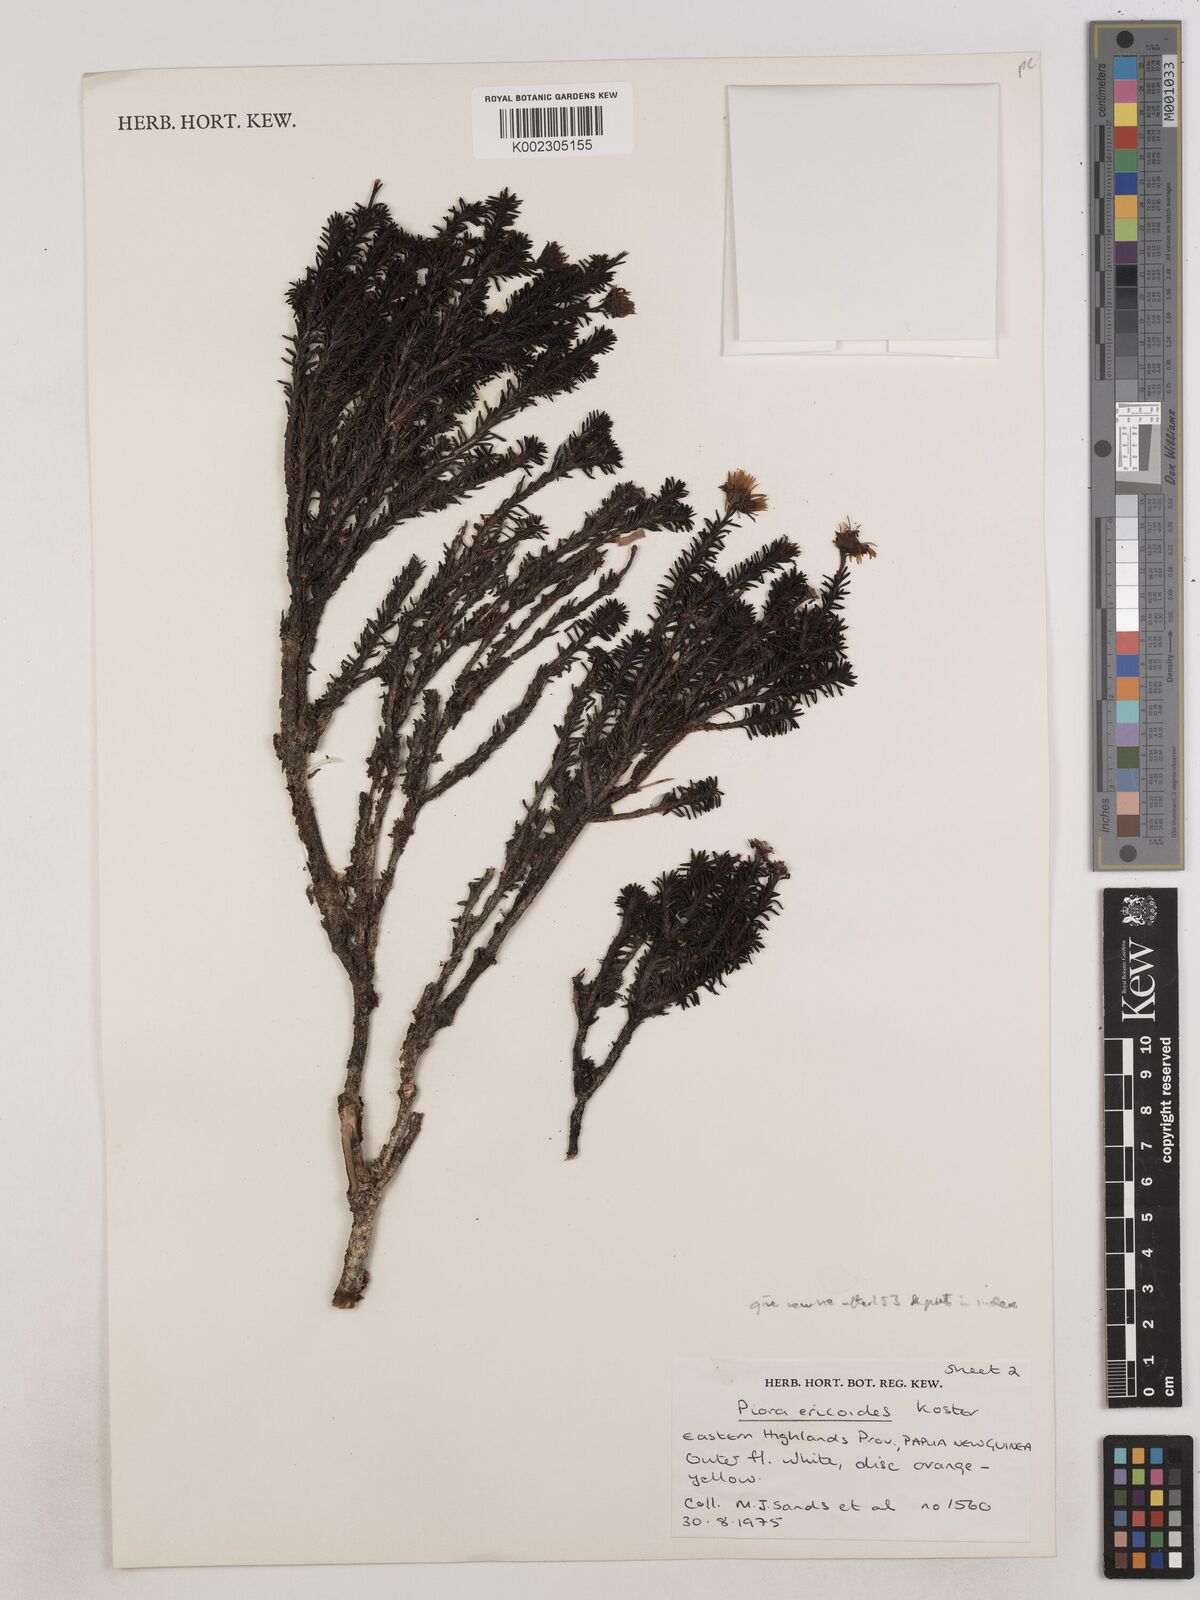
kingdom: Plantae
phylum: Tracheophyta
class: Magnoliopsida
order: Asterales
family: Asteraceae
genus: Piora
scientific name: Piora ericoides
